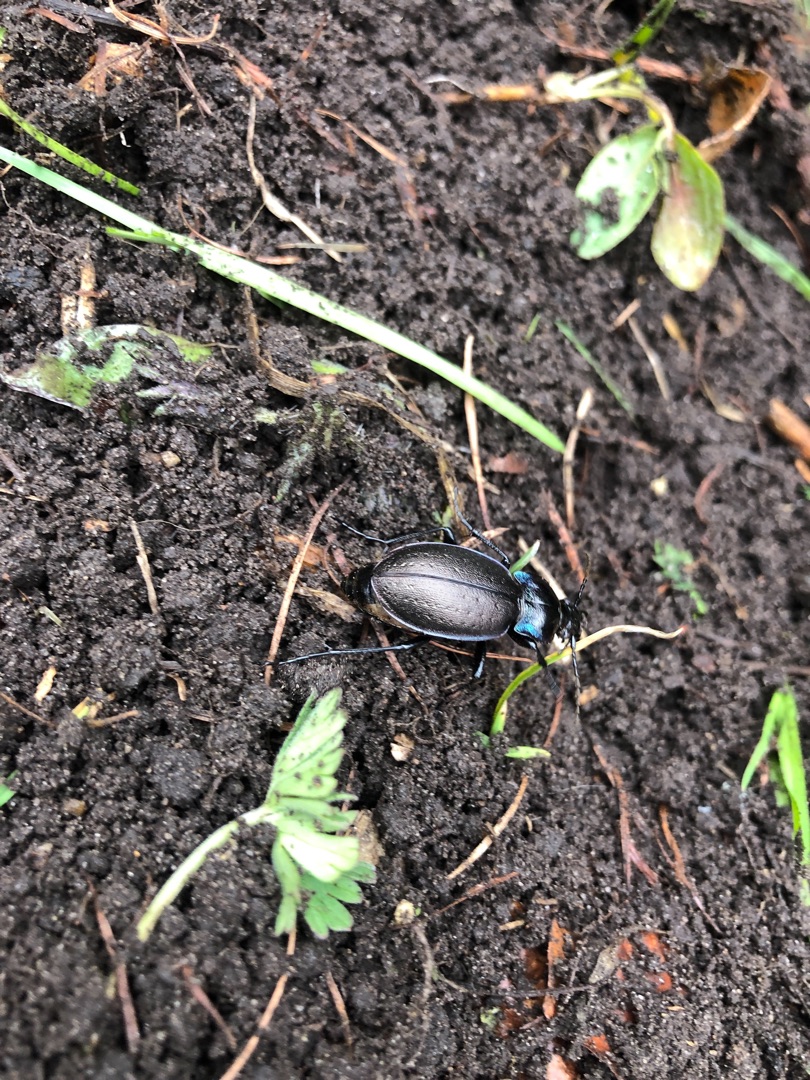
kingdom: Animalia
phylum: Arthropoda
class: Insecta
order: Coleoptera
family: Carabidae
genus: Carabus
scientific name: Carabus nemoralis
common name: Kratløber
